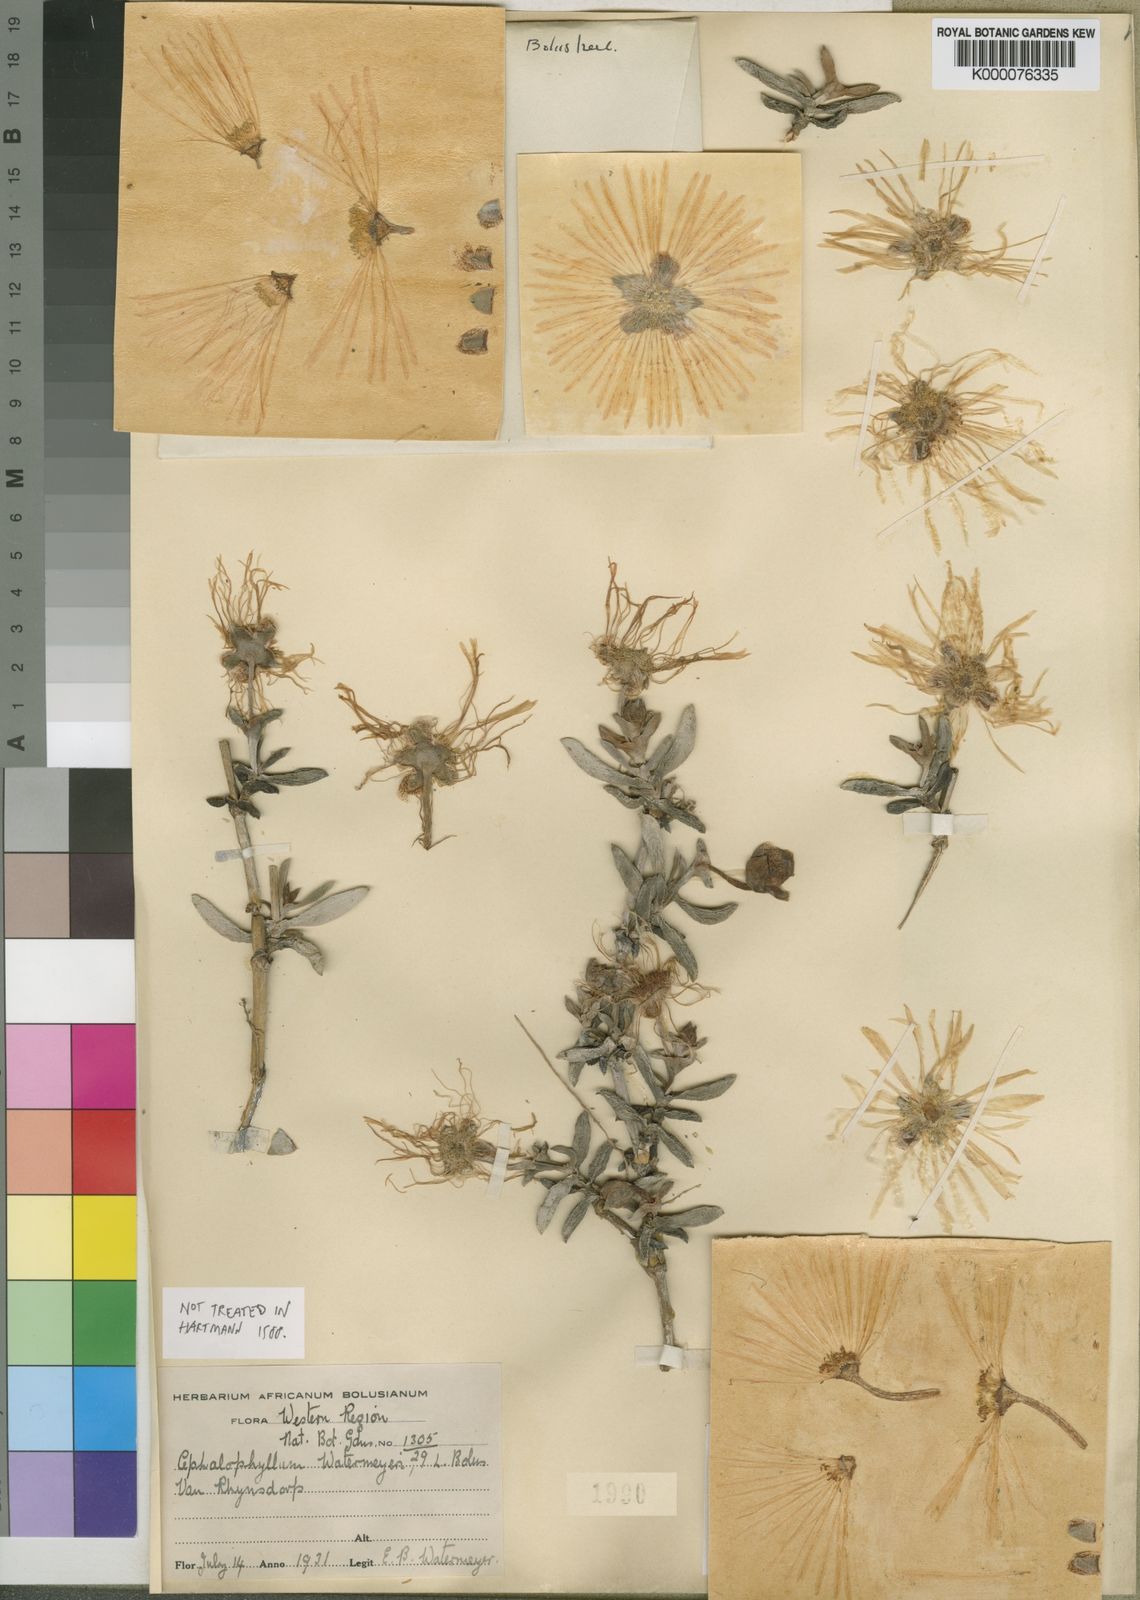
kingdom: Plantae
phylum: Tracheophyta
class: Magnoliopsida
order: Caryophyllales
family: Aizoaceae
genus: Jordaaniella
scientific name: Jordaaniella dubia
